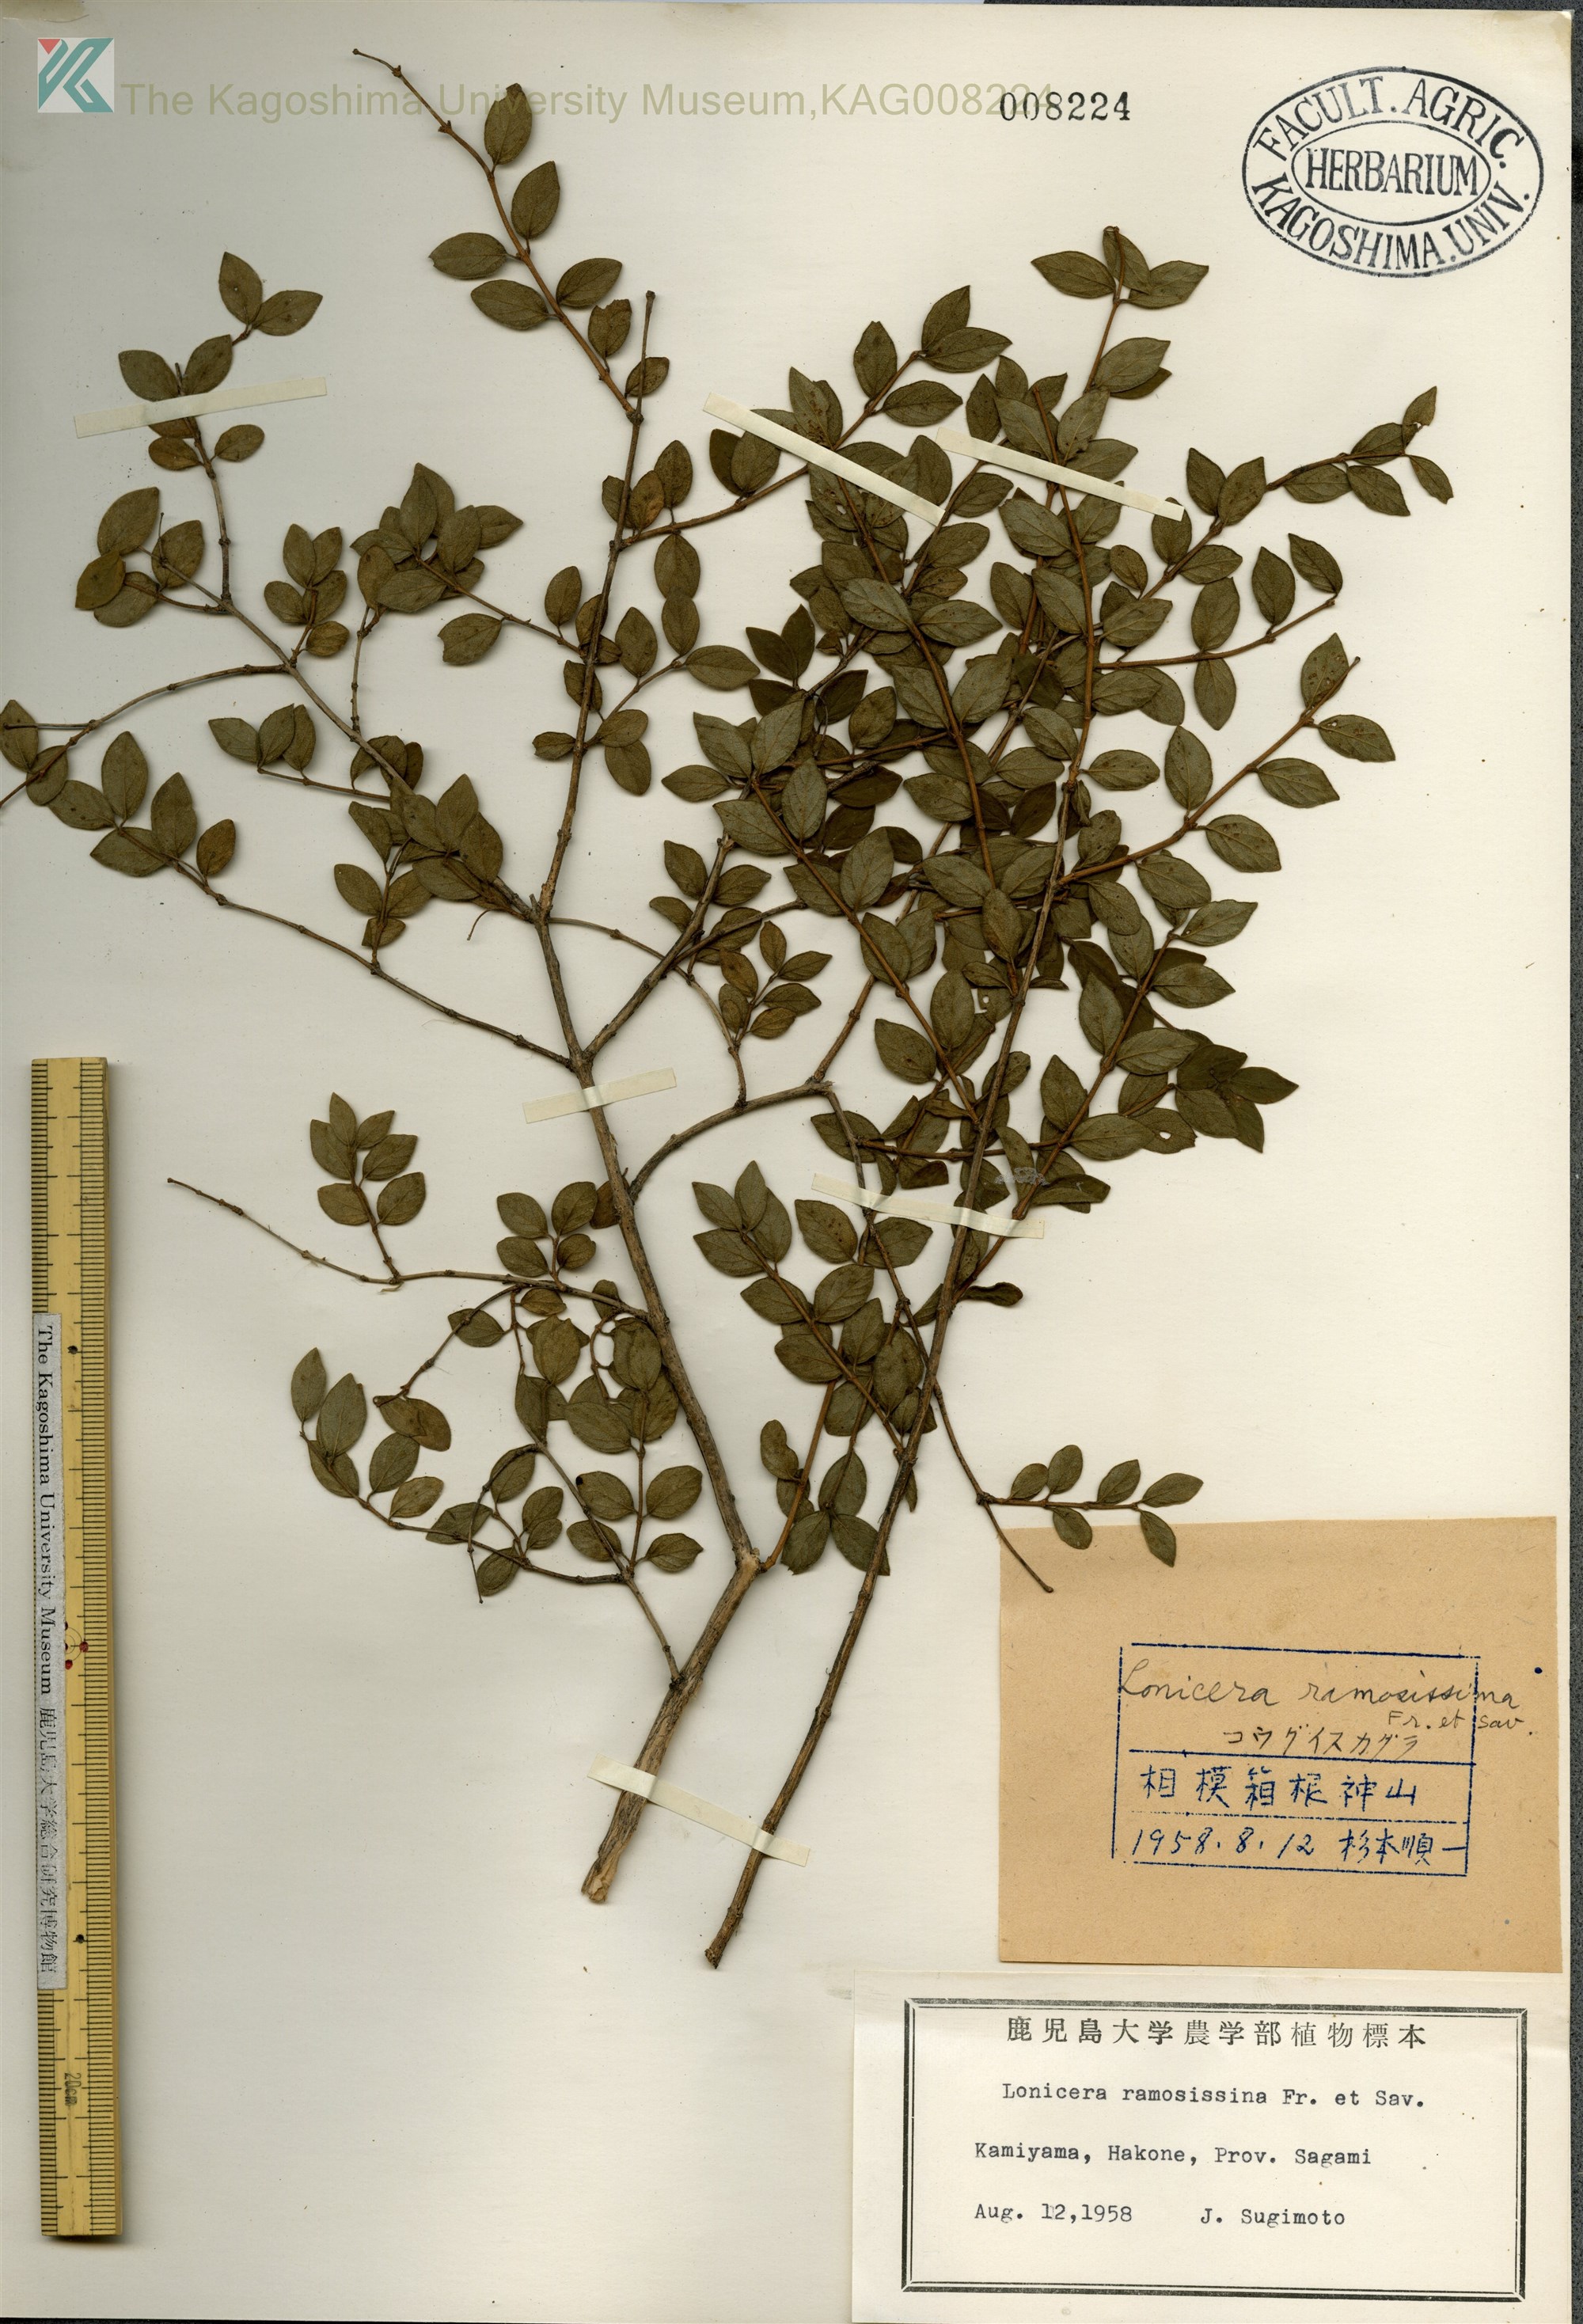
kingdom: Plantae
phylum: Tracheophyta
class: Magnoliopsida
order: Dipsacales
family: Caprifoliaceae
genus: Lonicera
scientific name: Lonicera ramosissima
